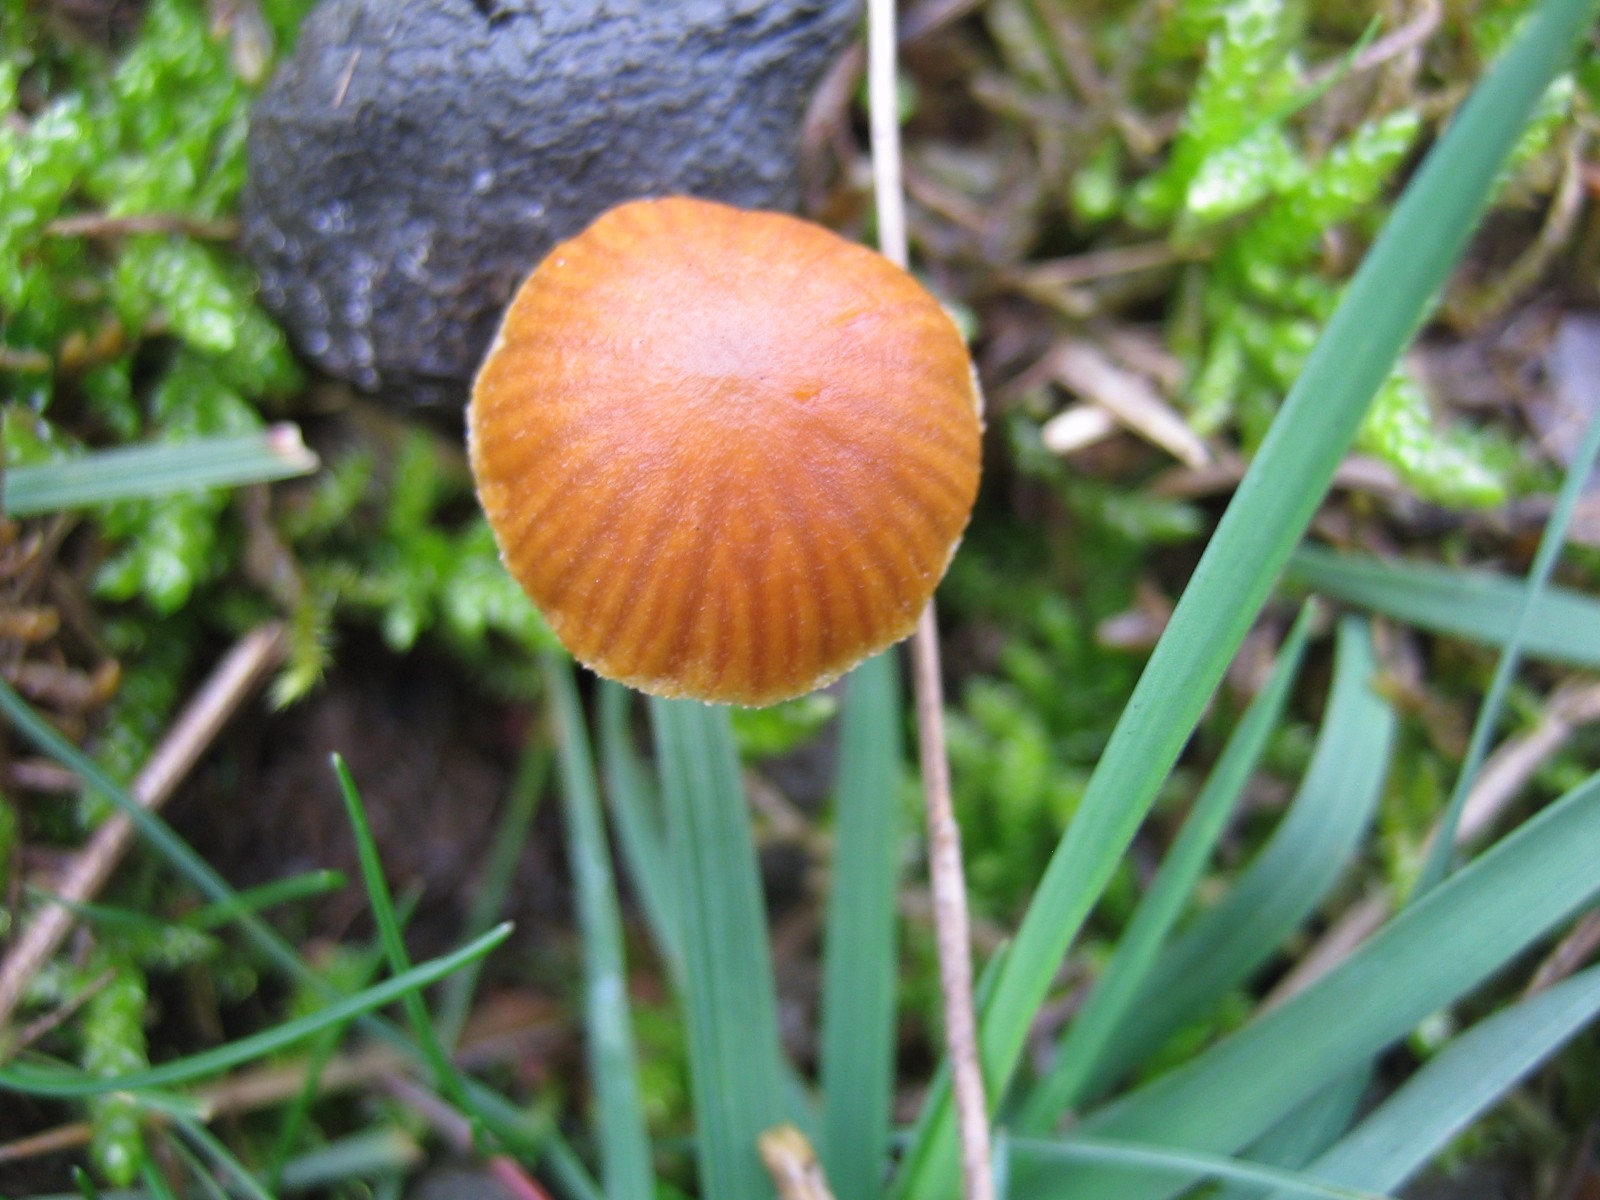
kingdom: Fungi
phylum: Basidiomycota
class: Agaricomycetes
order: Agaricales
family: Hymenogastraceae
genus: Galerina
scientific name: Galerina
